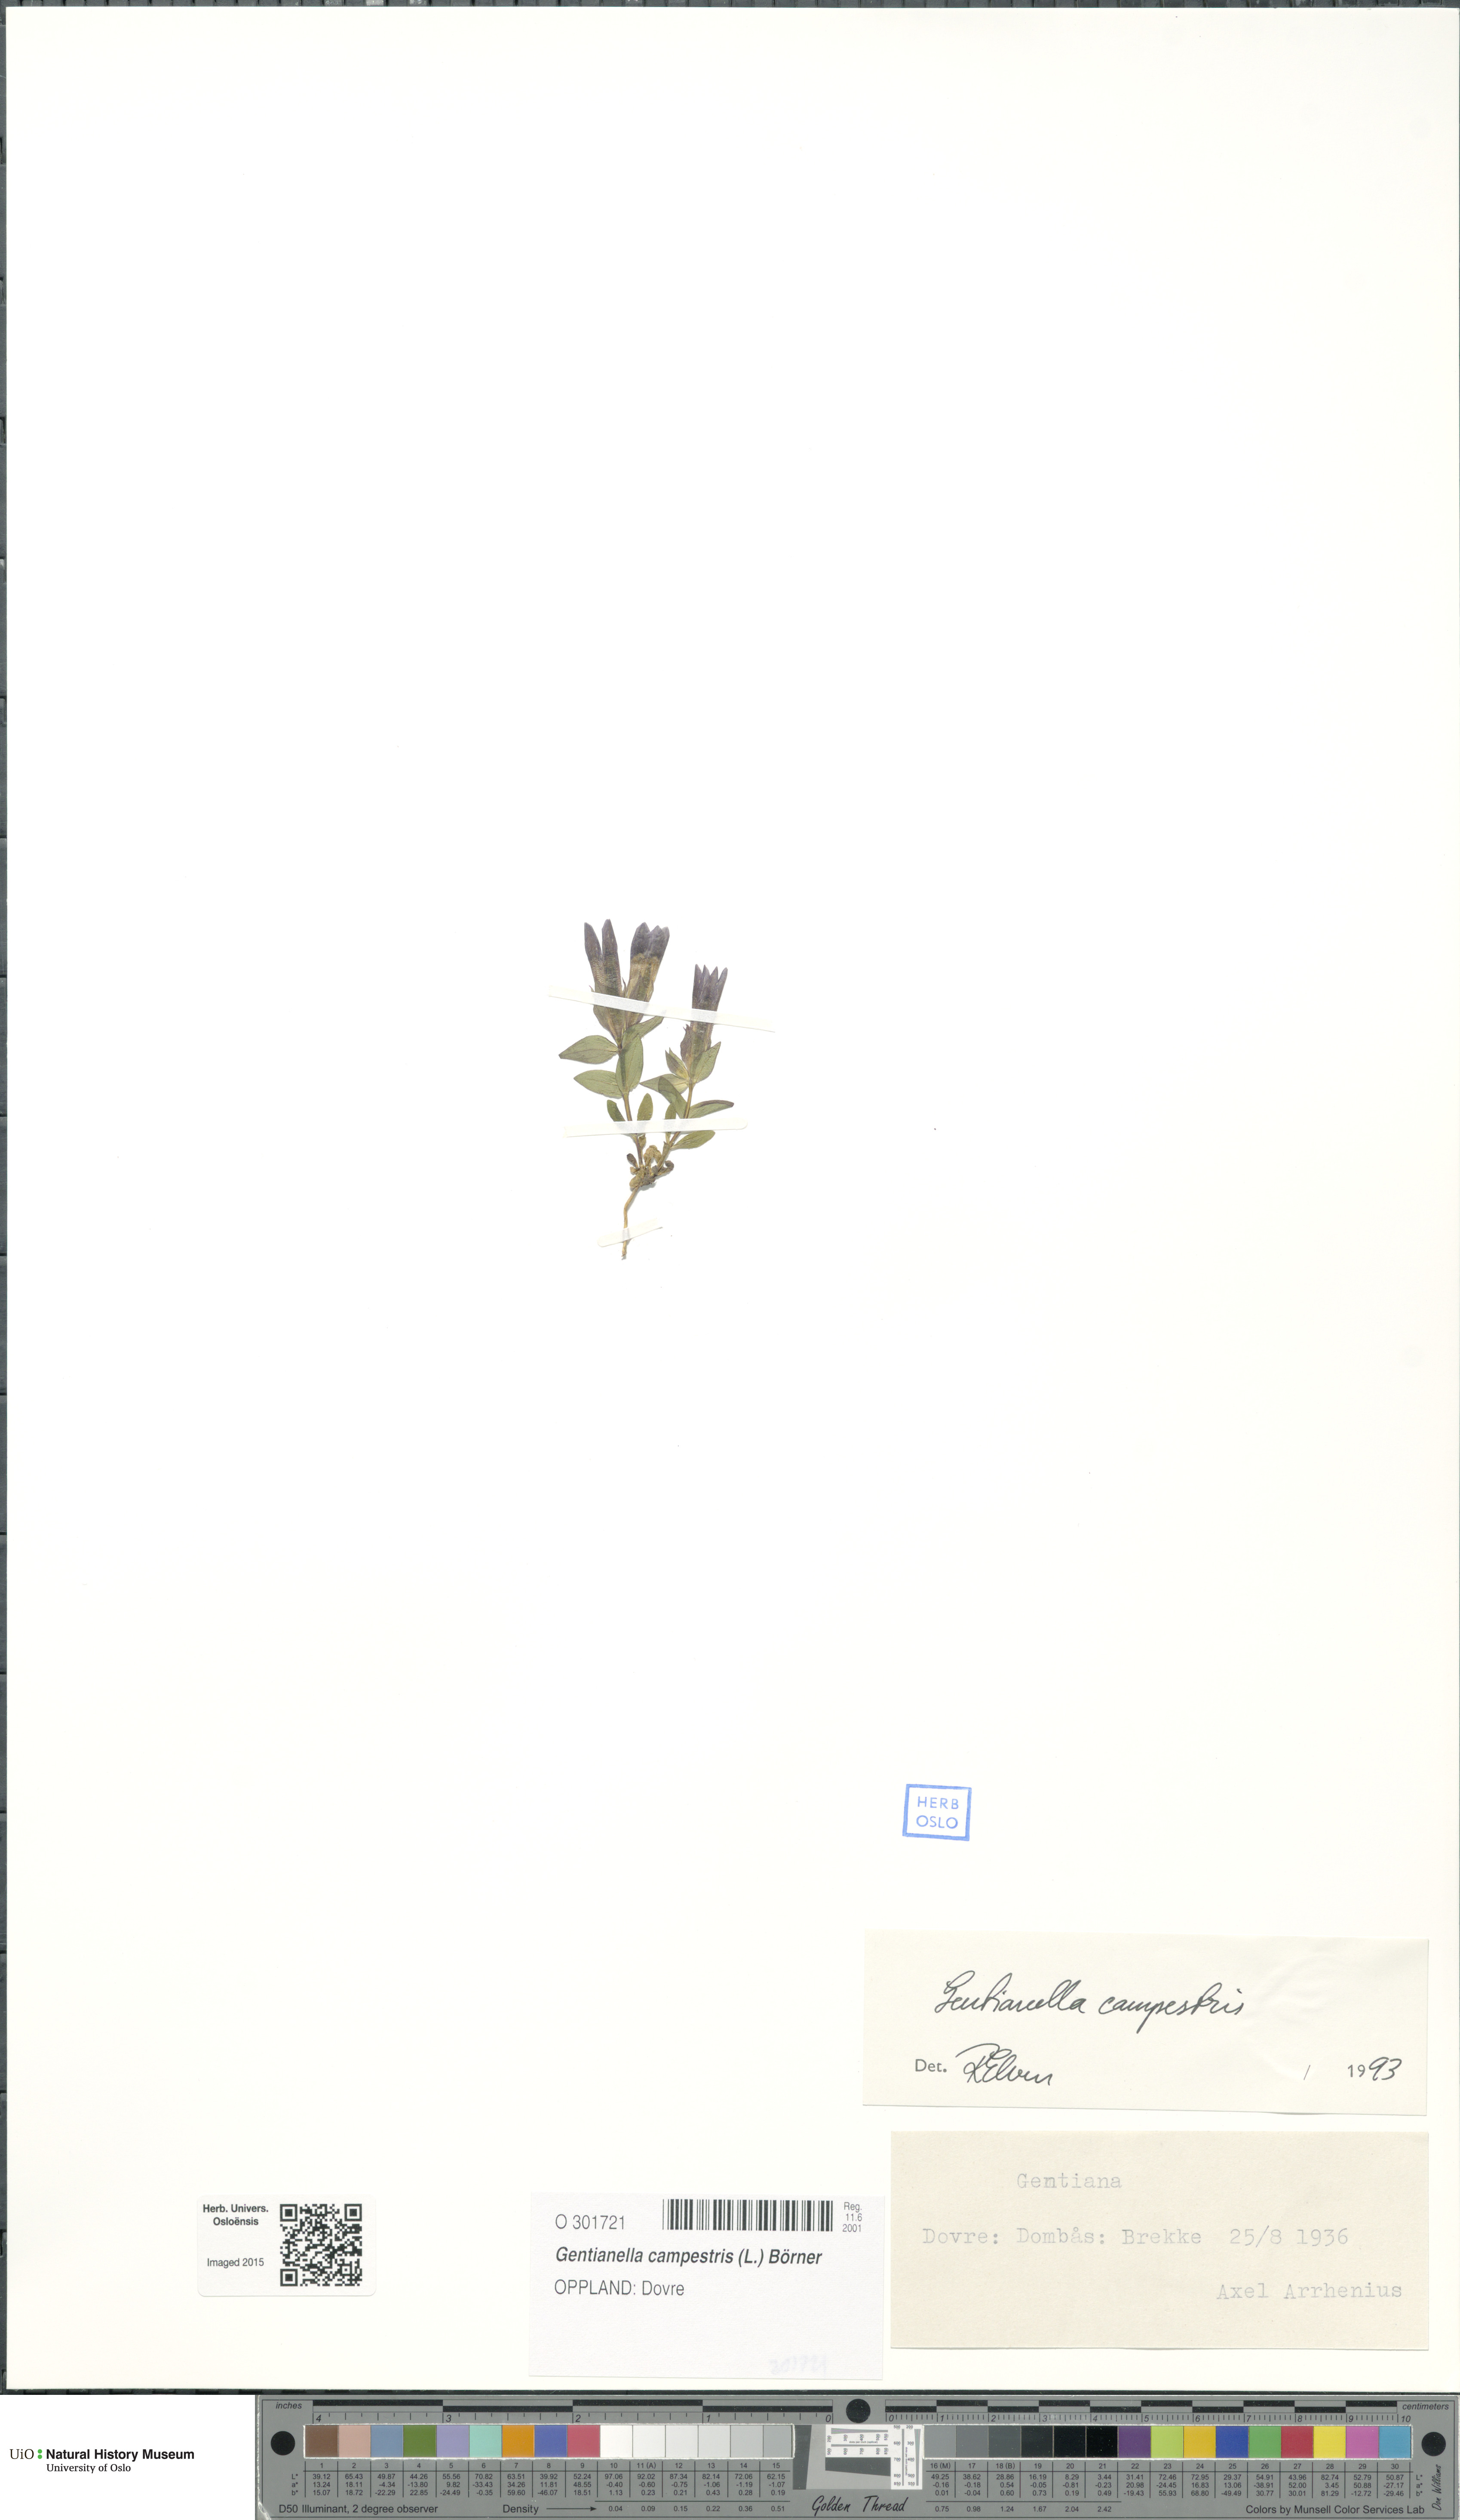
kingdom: Plantae
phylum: Tracheophyta
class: Magnoliopsida
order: Gentianales
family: Gentianaceae
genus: Gentianella
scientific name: Gentianella campestris
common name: Field gentian
